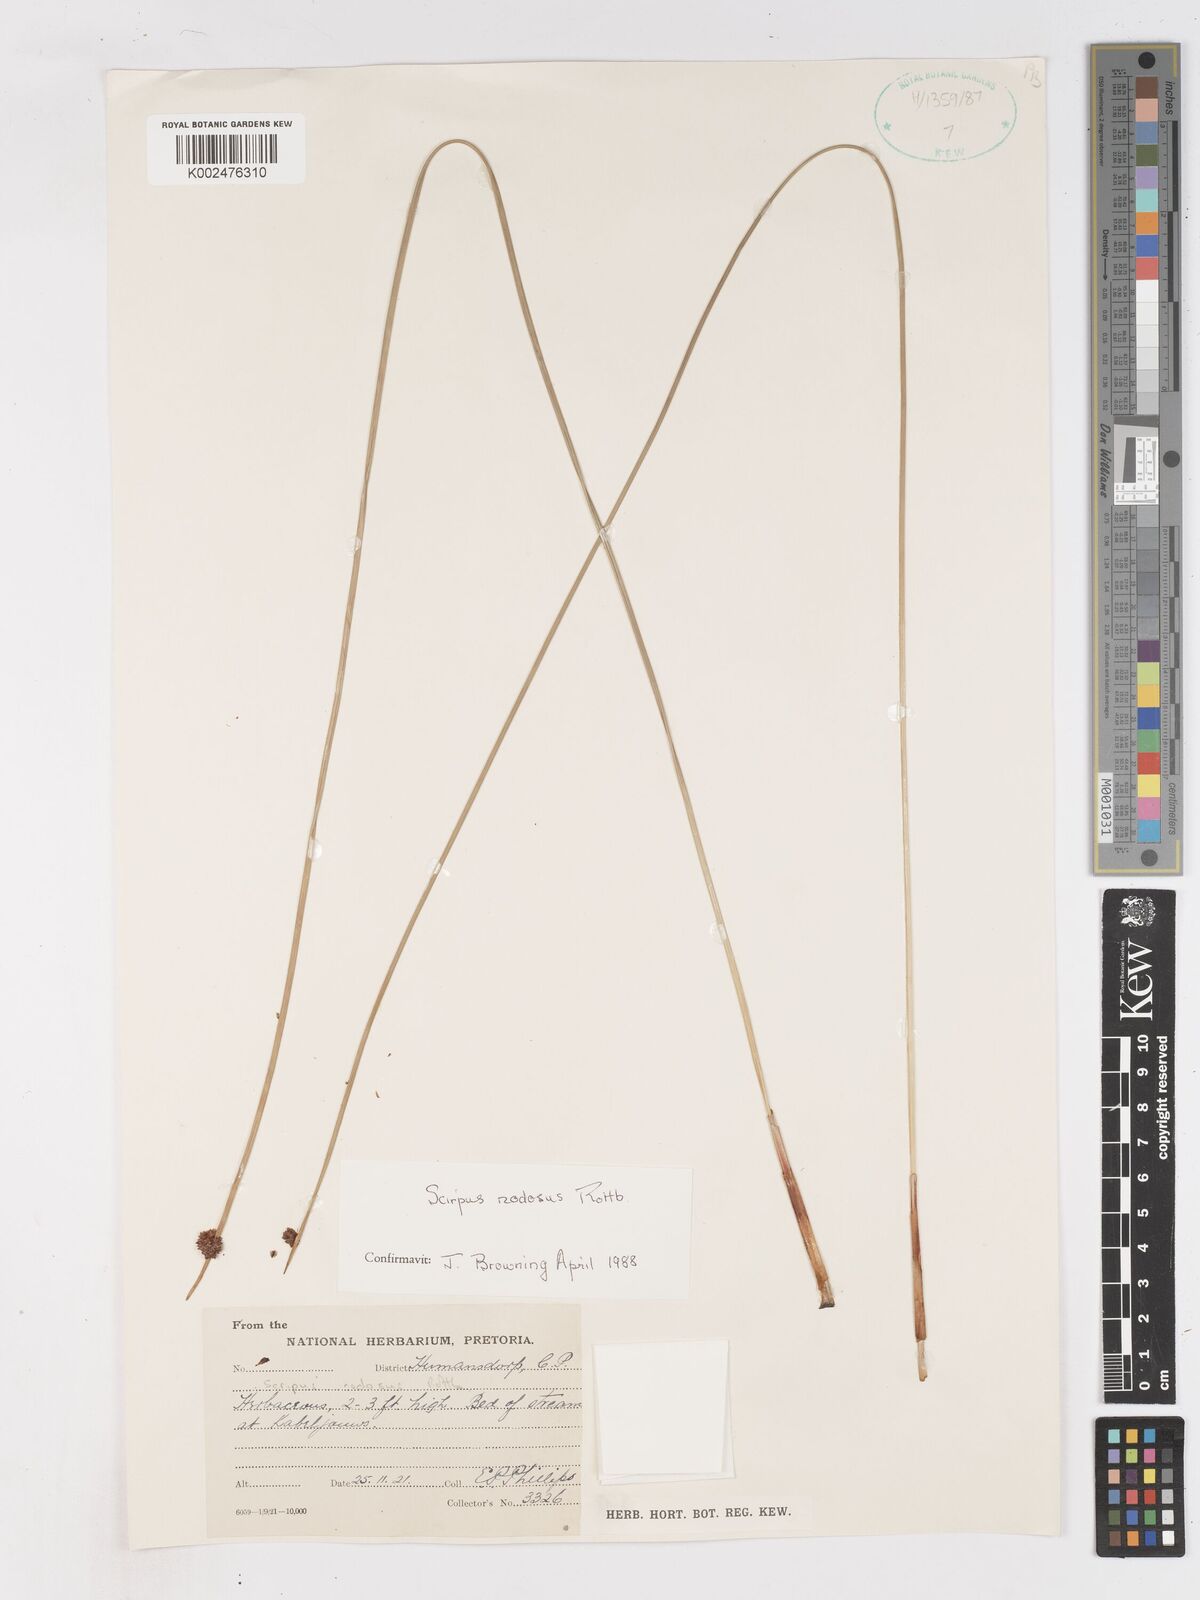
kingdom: Plantae
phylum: Tracheophyta
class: Liliopsida
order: Poales
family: Cyperaceae
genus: Ficinia
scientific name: Ficinia nodosa
